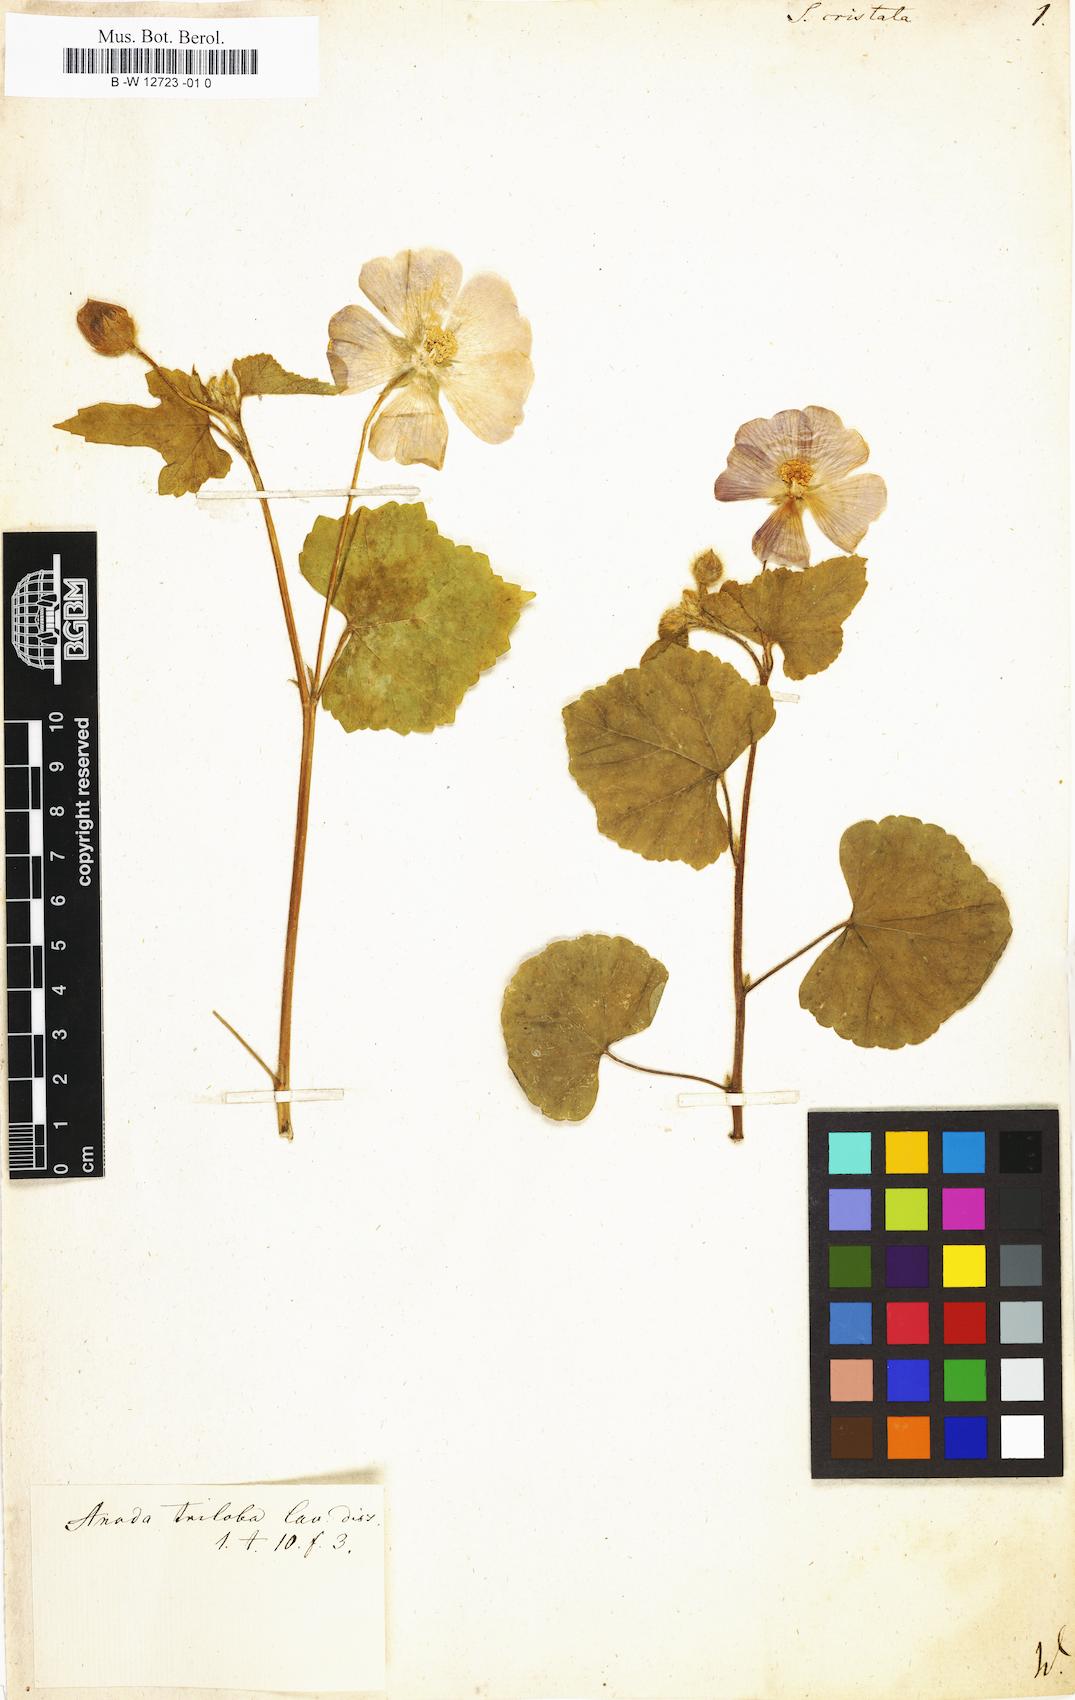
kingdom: Plantae
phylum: Tracheophyta
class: Magnoliopsida
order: Malvales
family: Malvaceae
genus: Anoda
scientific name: Anoda cristata
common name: Spurred anoda
